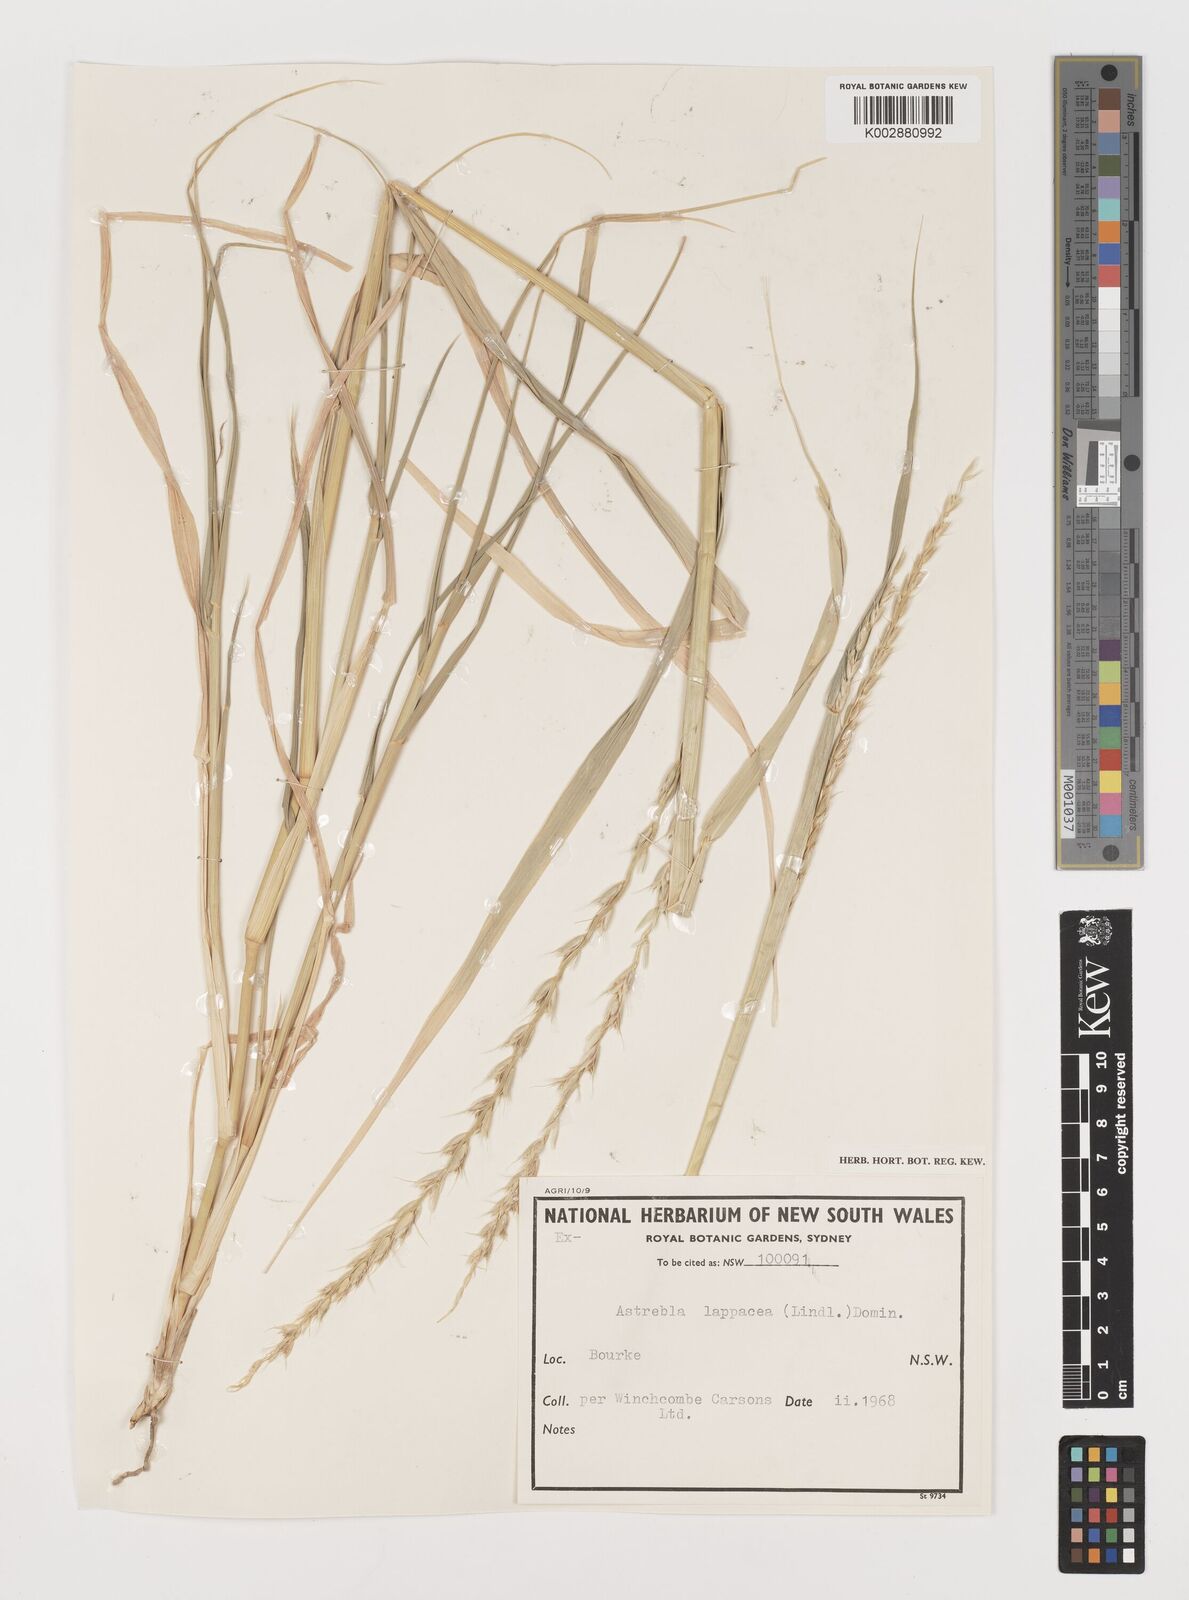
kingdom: Plantae
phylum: Tracheophyta
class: Liliopsida
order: Poales
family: Poaceae
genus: Astrebla
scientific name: Astrebla lappacea
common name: Curly mitchell grass
